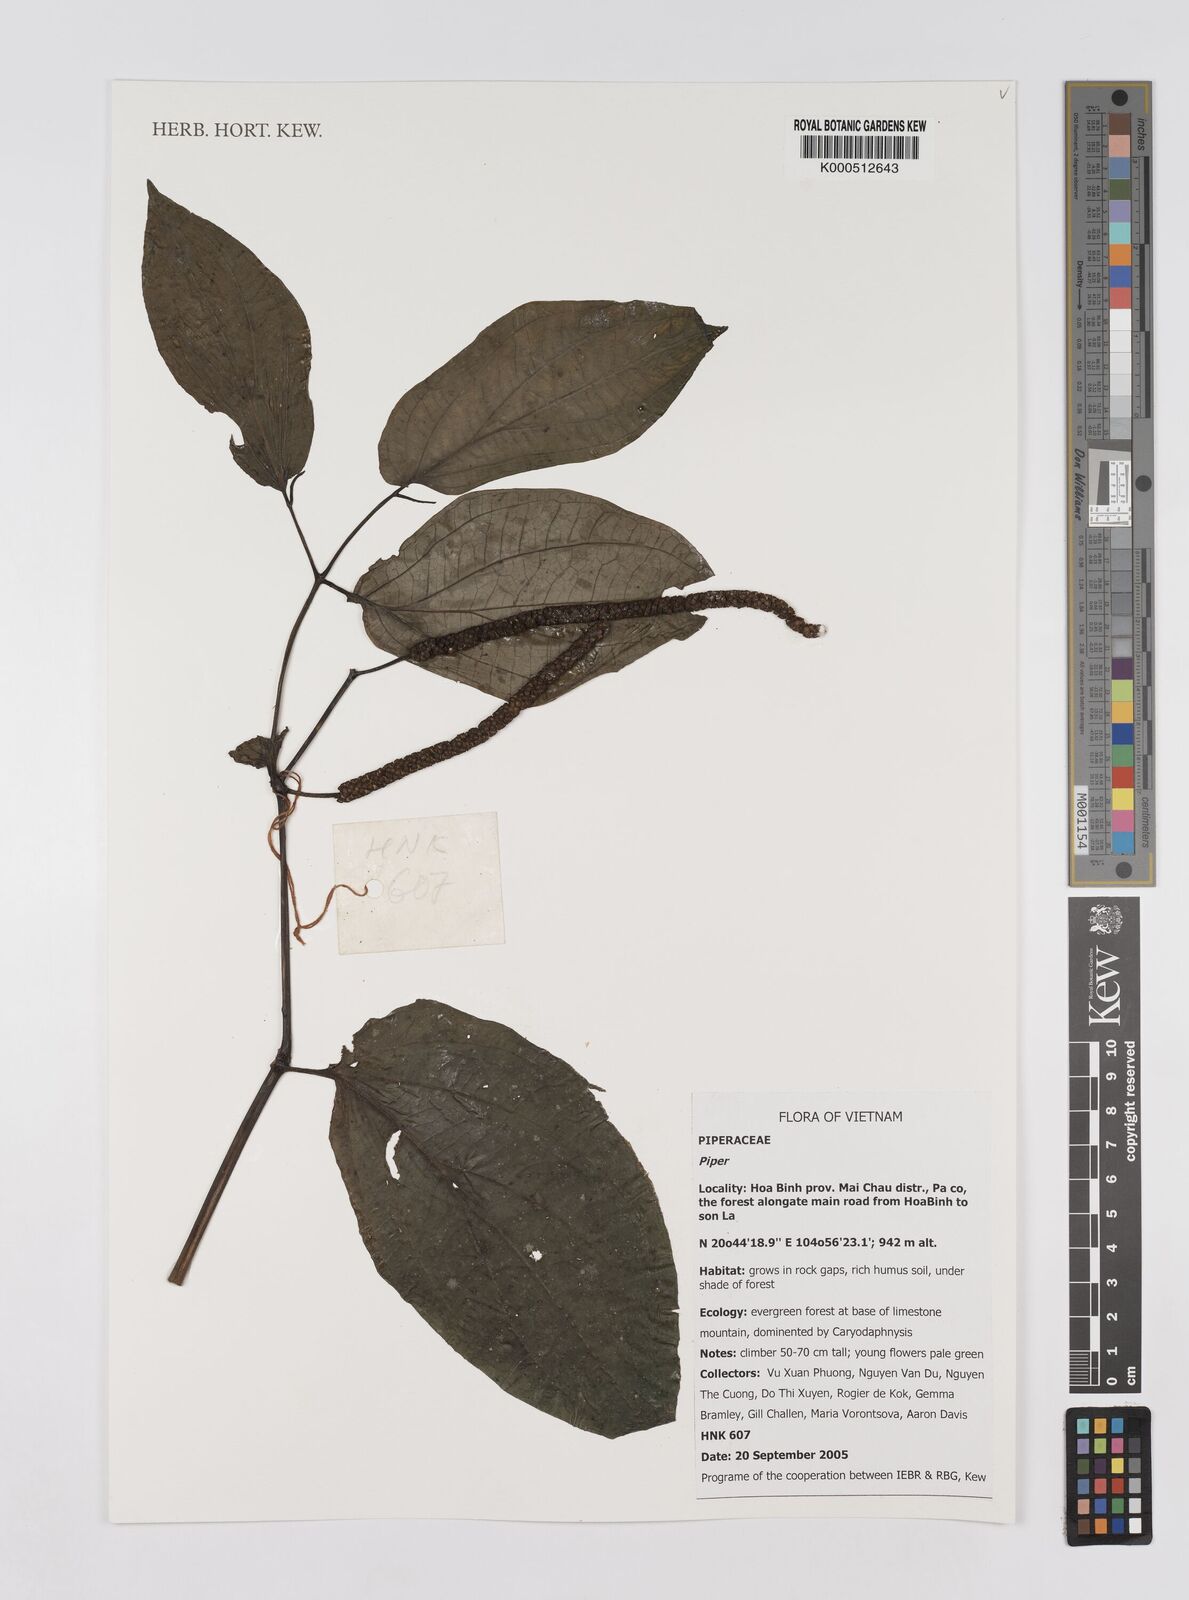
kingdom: Plantae
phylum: Tracheophyta
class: Magnoliopsida
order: Piperales
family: Piperaceae
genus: Piper
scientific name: Piper
